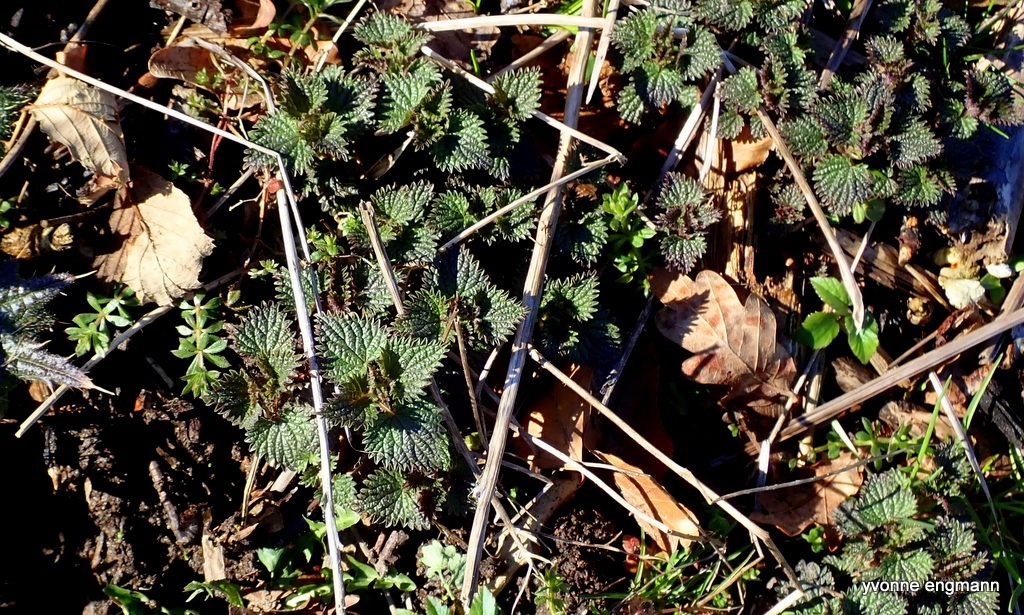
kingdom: Plantae
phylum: Tracheophyta
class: Magnoliopsida
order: Rosales
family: Urticaceae
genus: Urtica
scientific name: Urtica dioica
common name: Stor nælde
